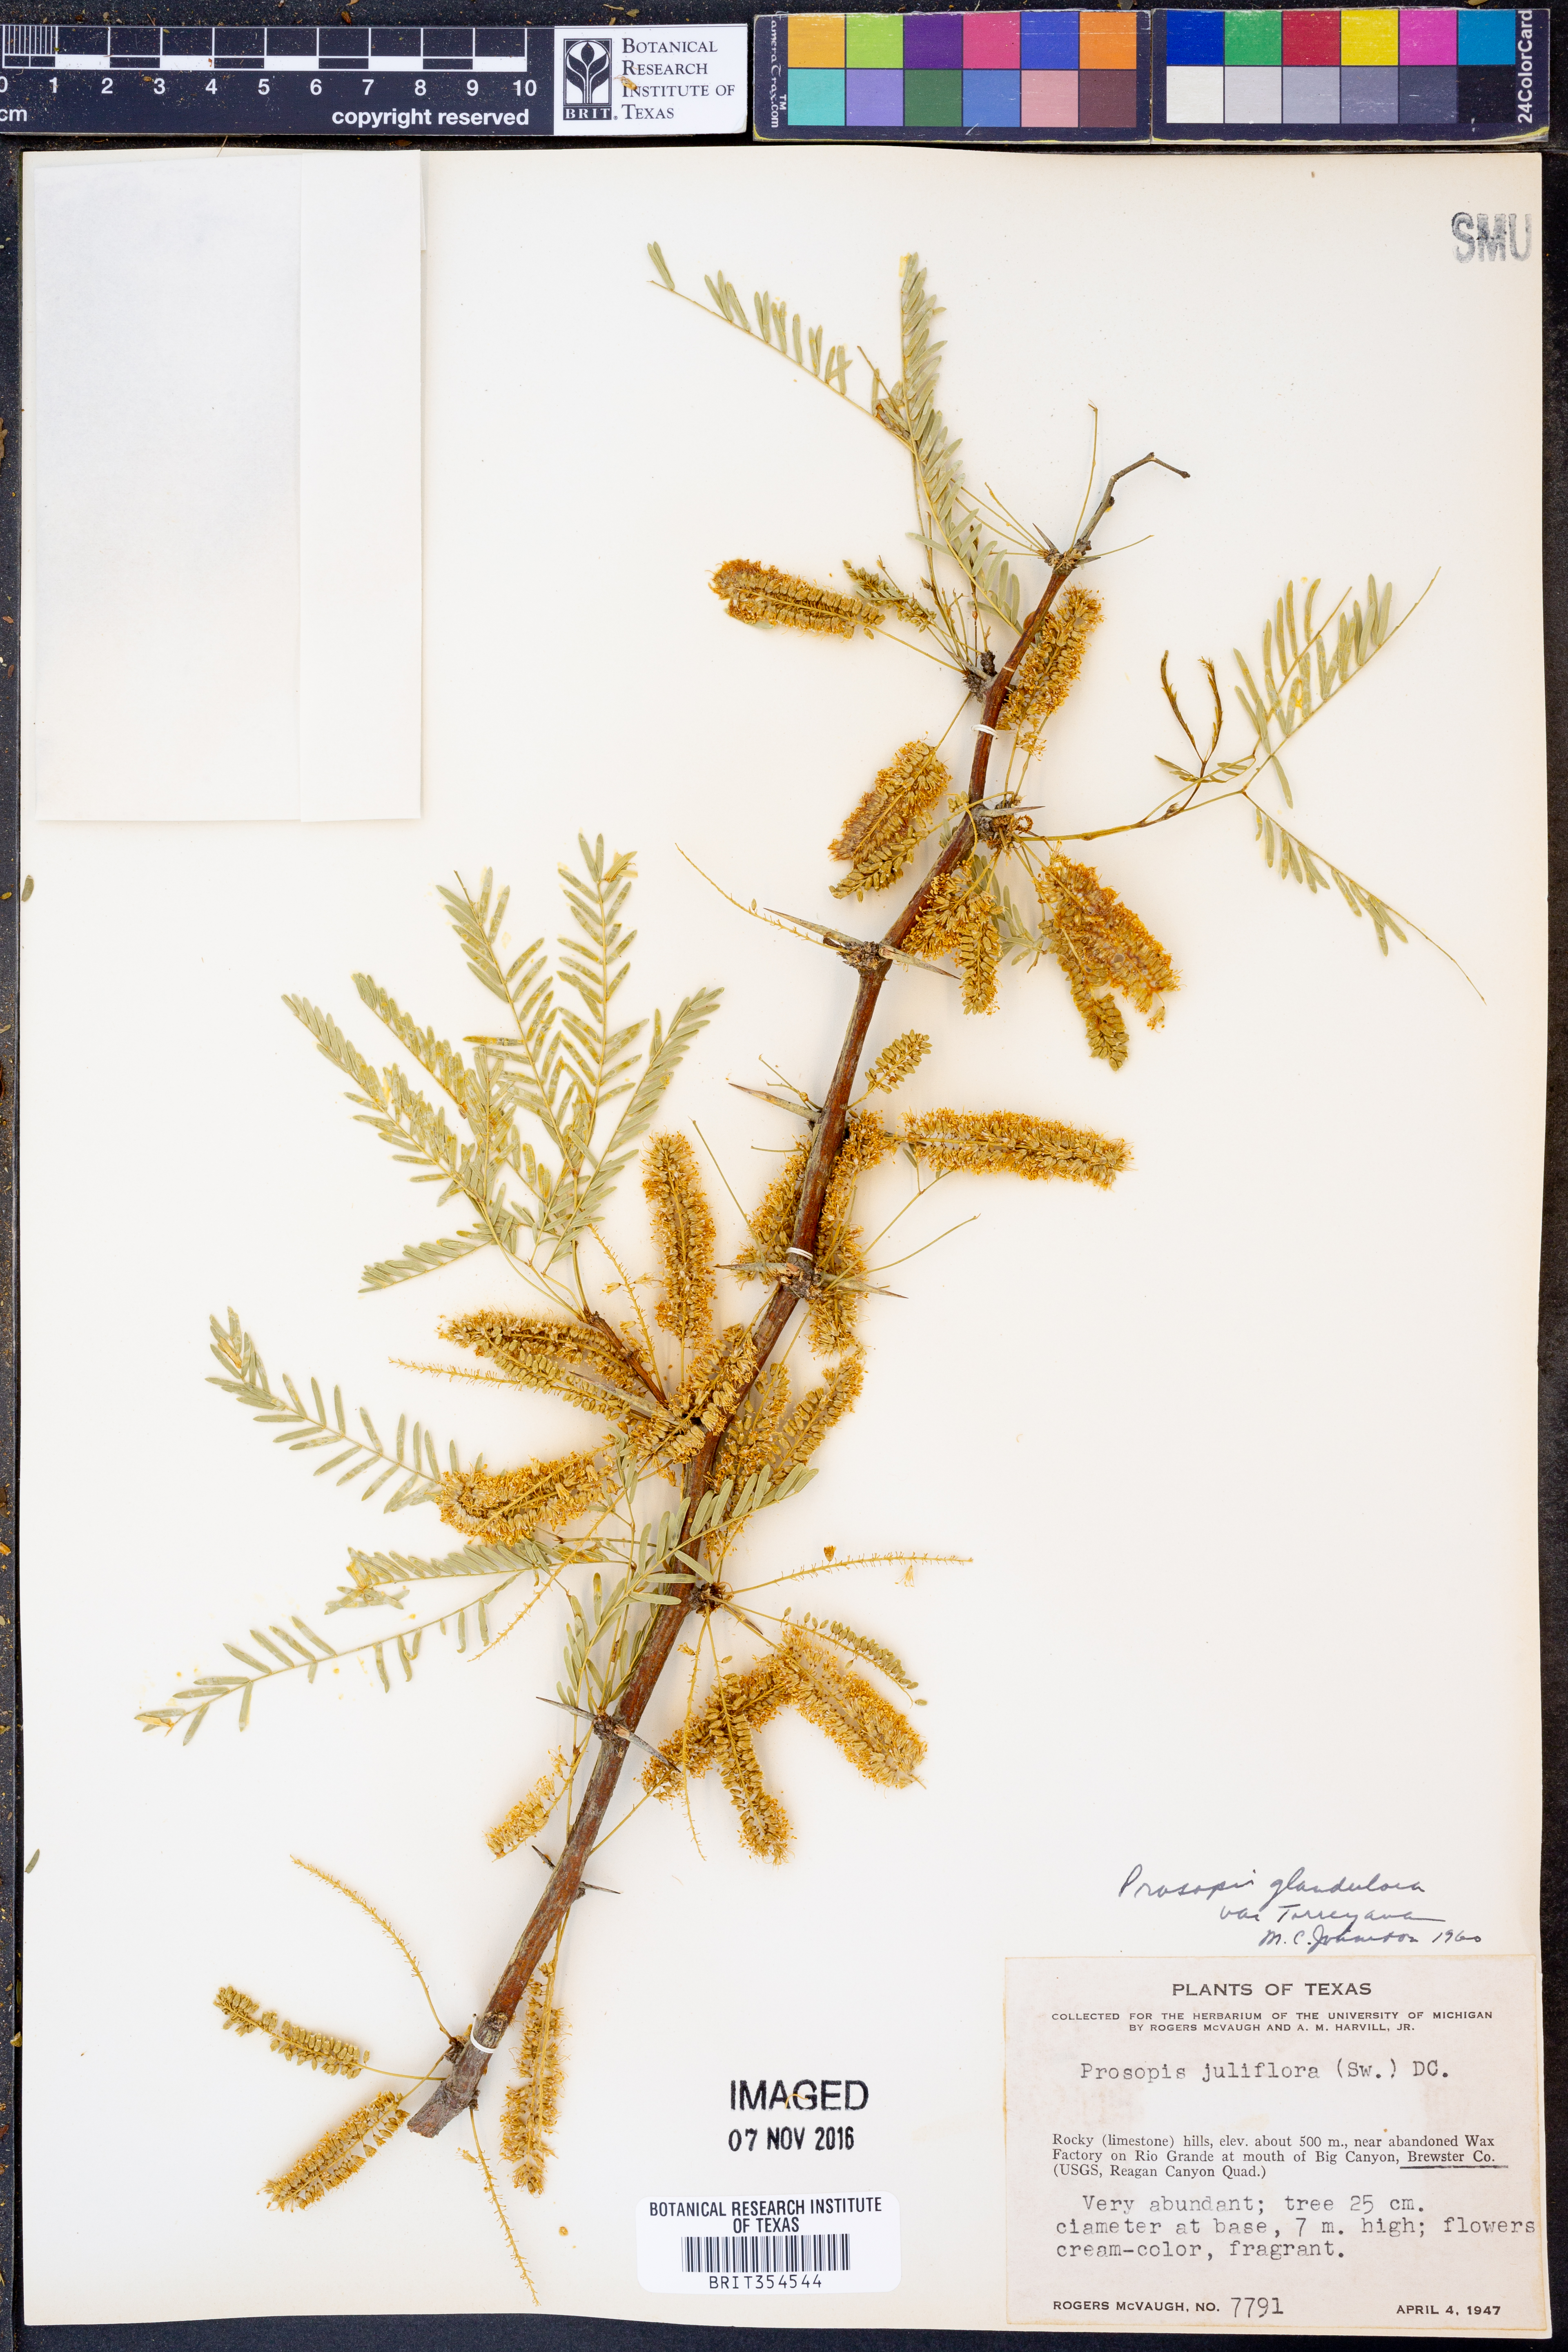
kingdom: Plantae
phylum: Tracheophyta
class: Magnoliopsida
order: Fabales
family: Fabaceae
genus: Prosopis
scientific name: Prosopis glandulosa
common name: Honey mesquite
